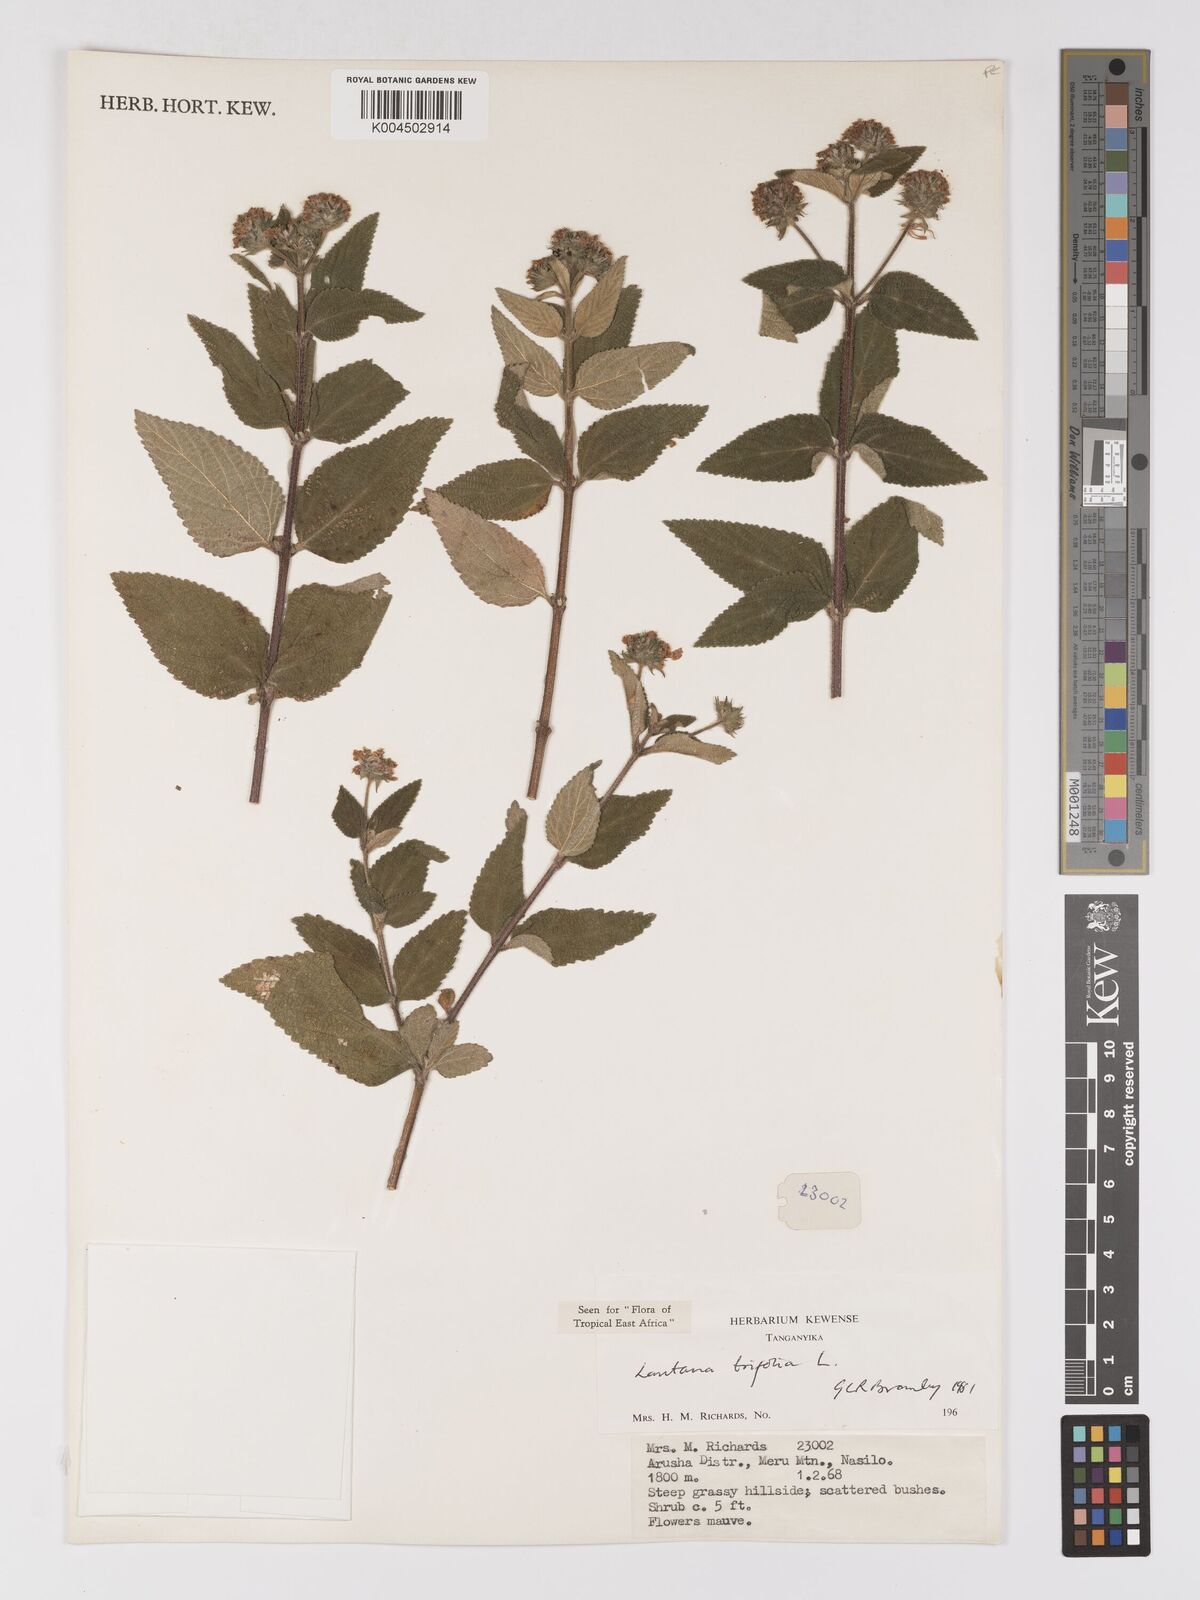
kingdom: Plantae
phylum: Tracheophyta
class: Magnoliopsida
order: Lamiales
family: Verbenaceae
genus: Lantana
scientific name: Lantana trifolia
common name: Sweet-sage
